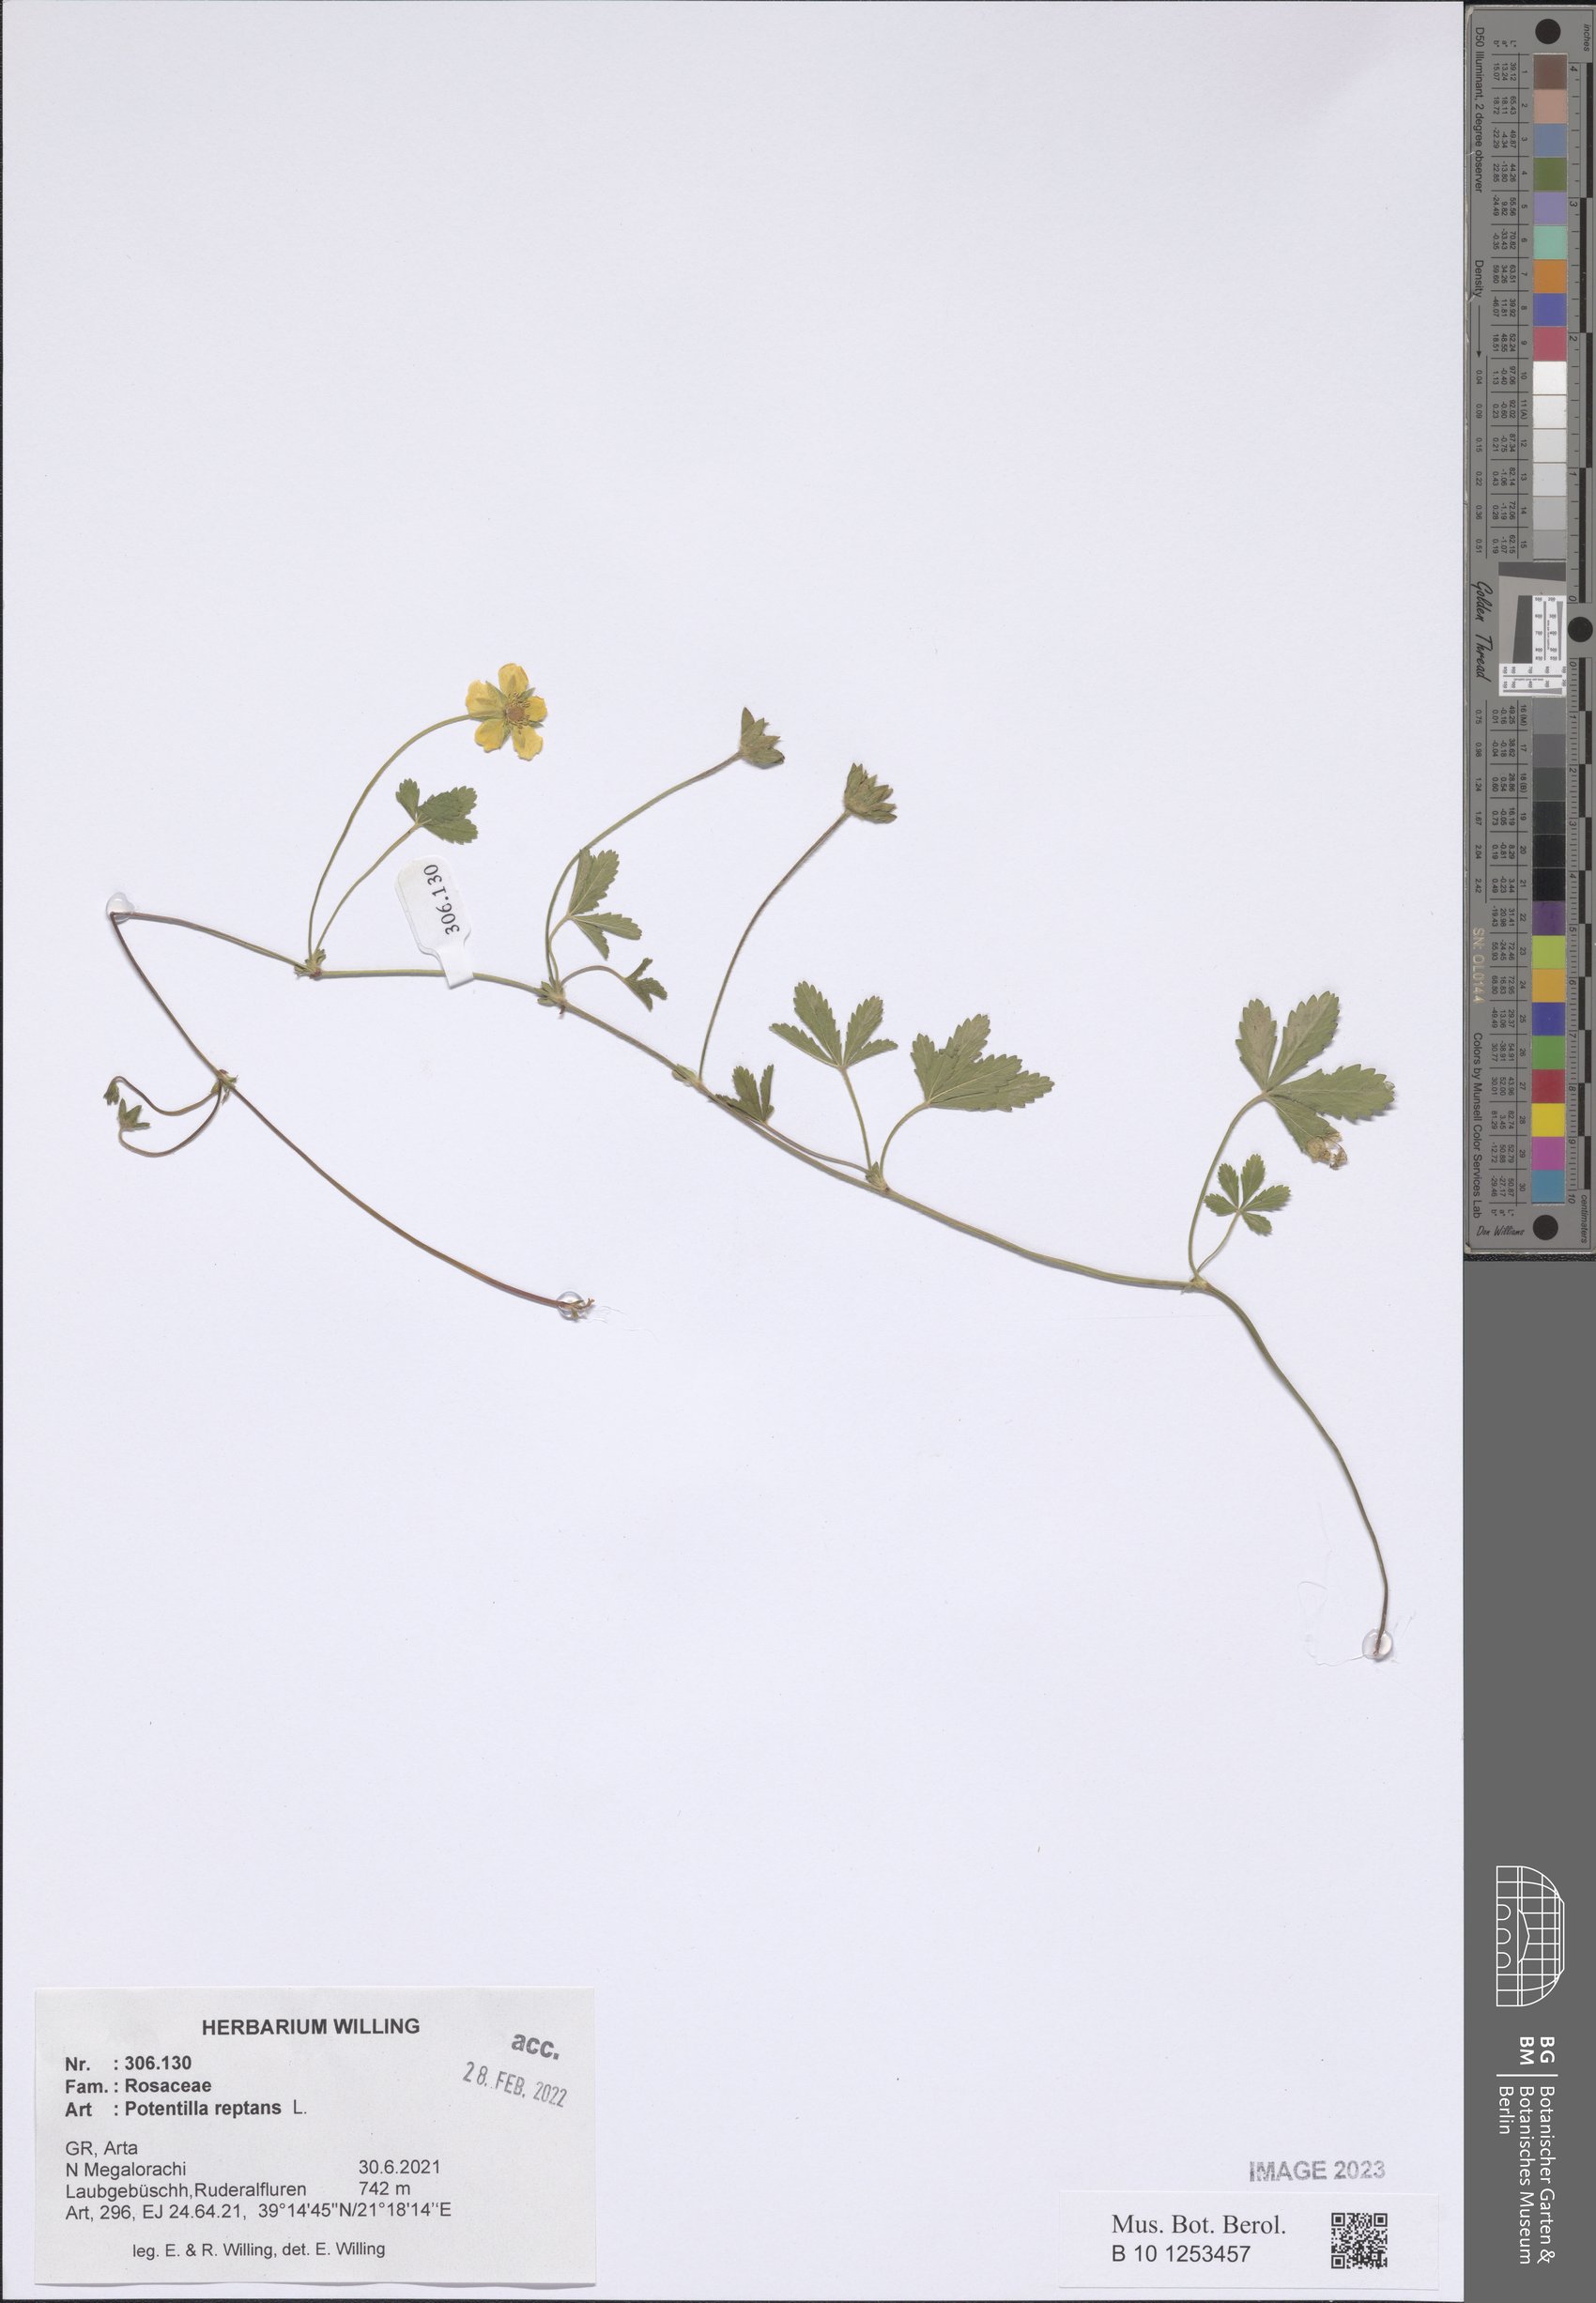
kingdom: Plantae
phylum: Tracheophyta
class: Magnoliopsida
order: Rosales
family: Rosaceae
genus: Potentilla
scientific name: Potentilla reptans
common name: Creeping cinquefoil
